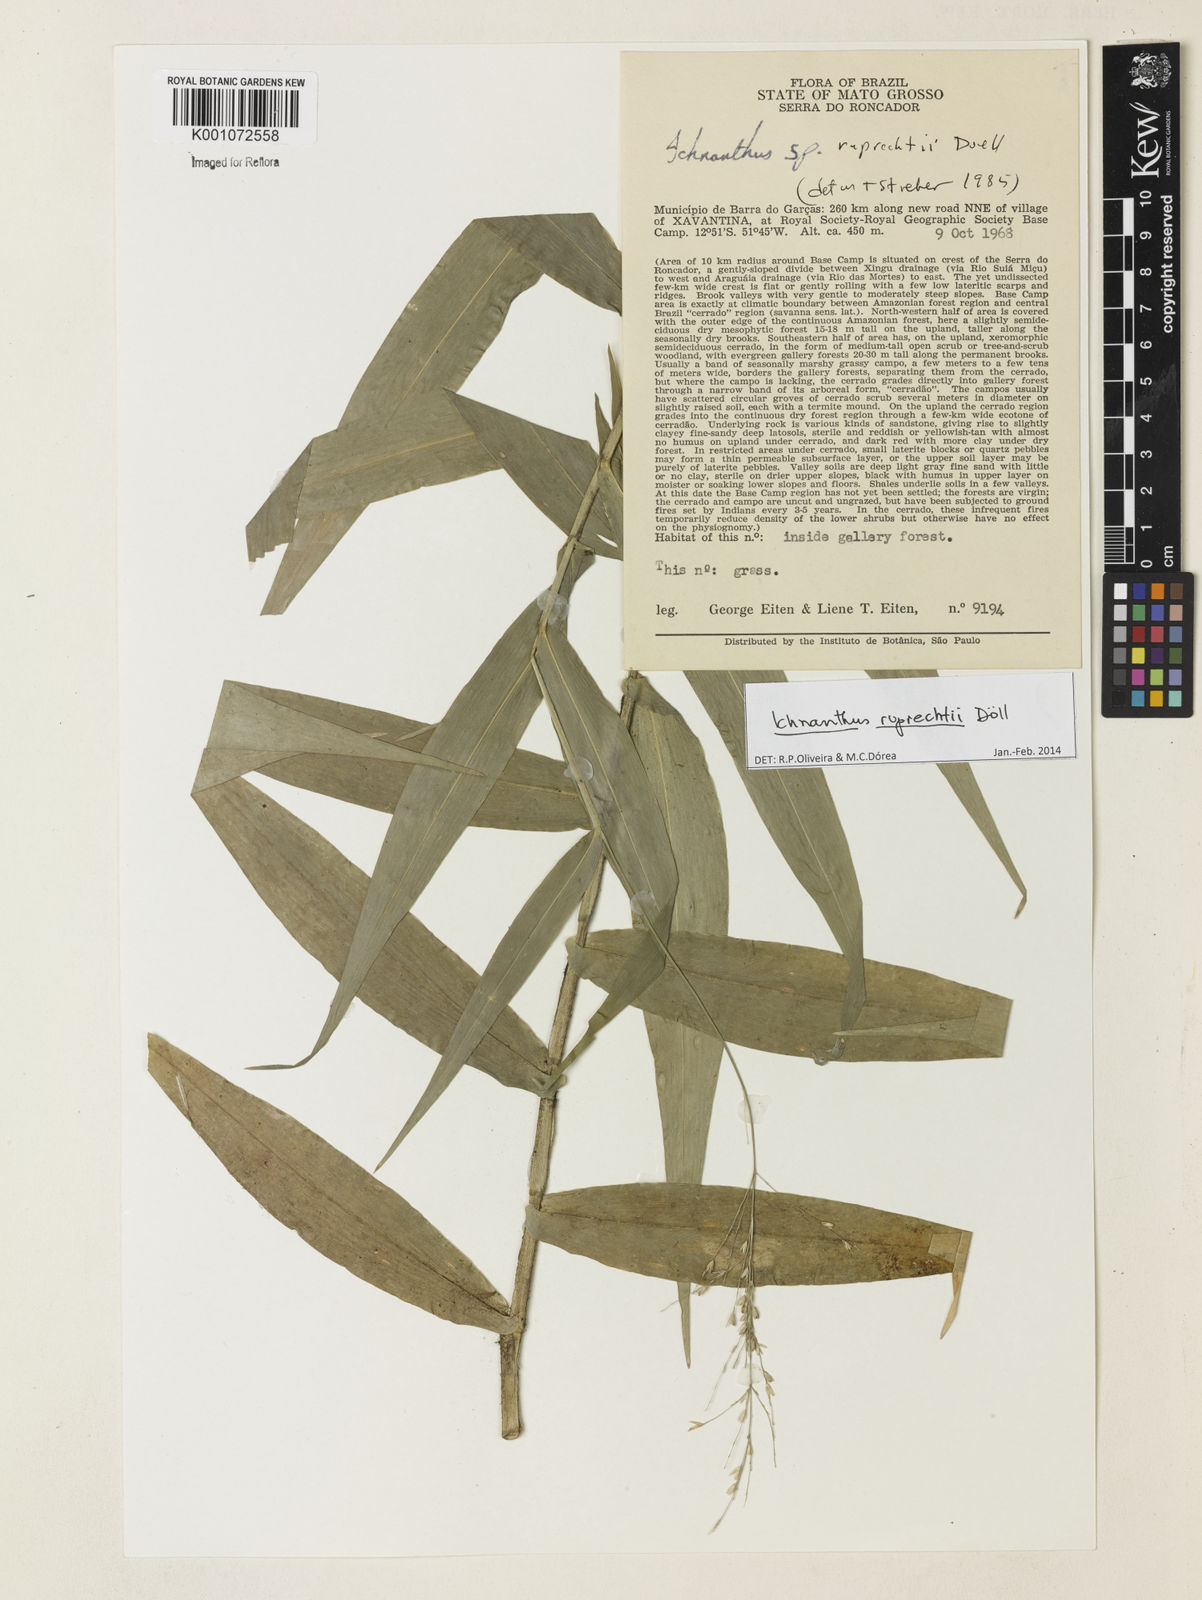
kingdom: Plantae
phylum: Tracheophyta
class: Liliopsida
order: Poales
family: Poaceae
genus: Ichnanthus
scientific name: Ichnanthus
